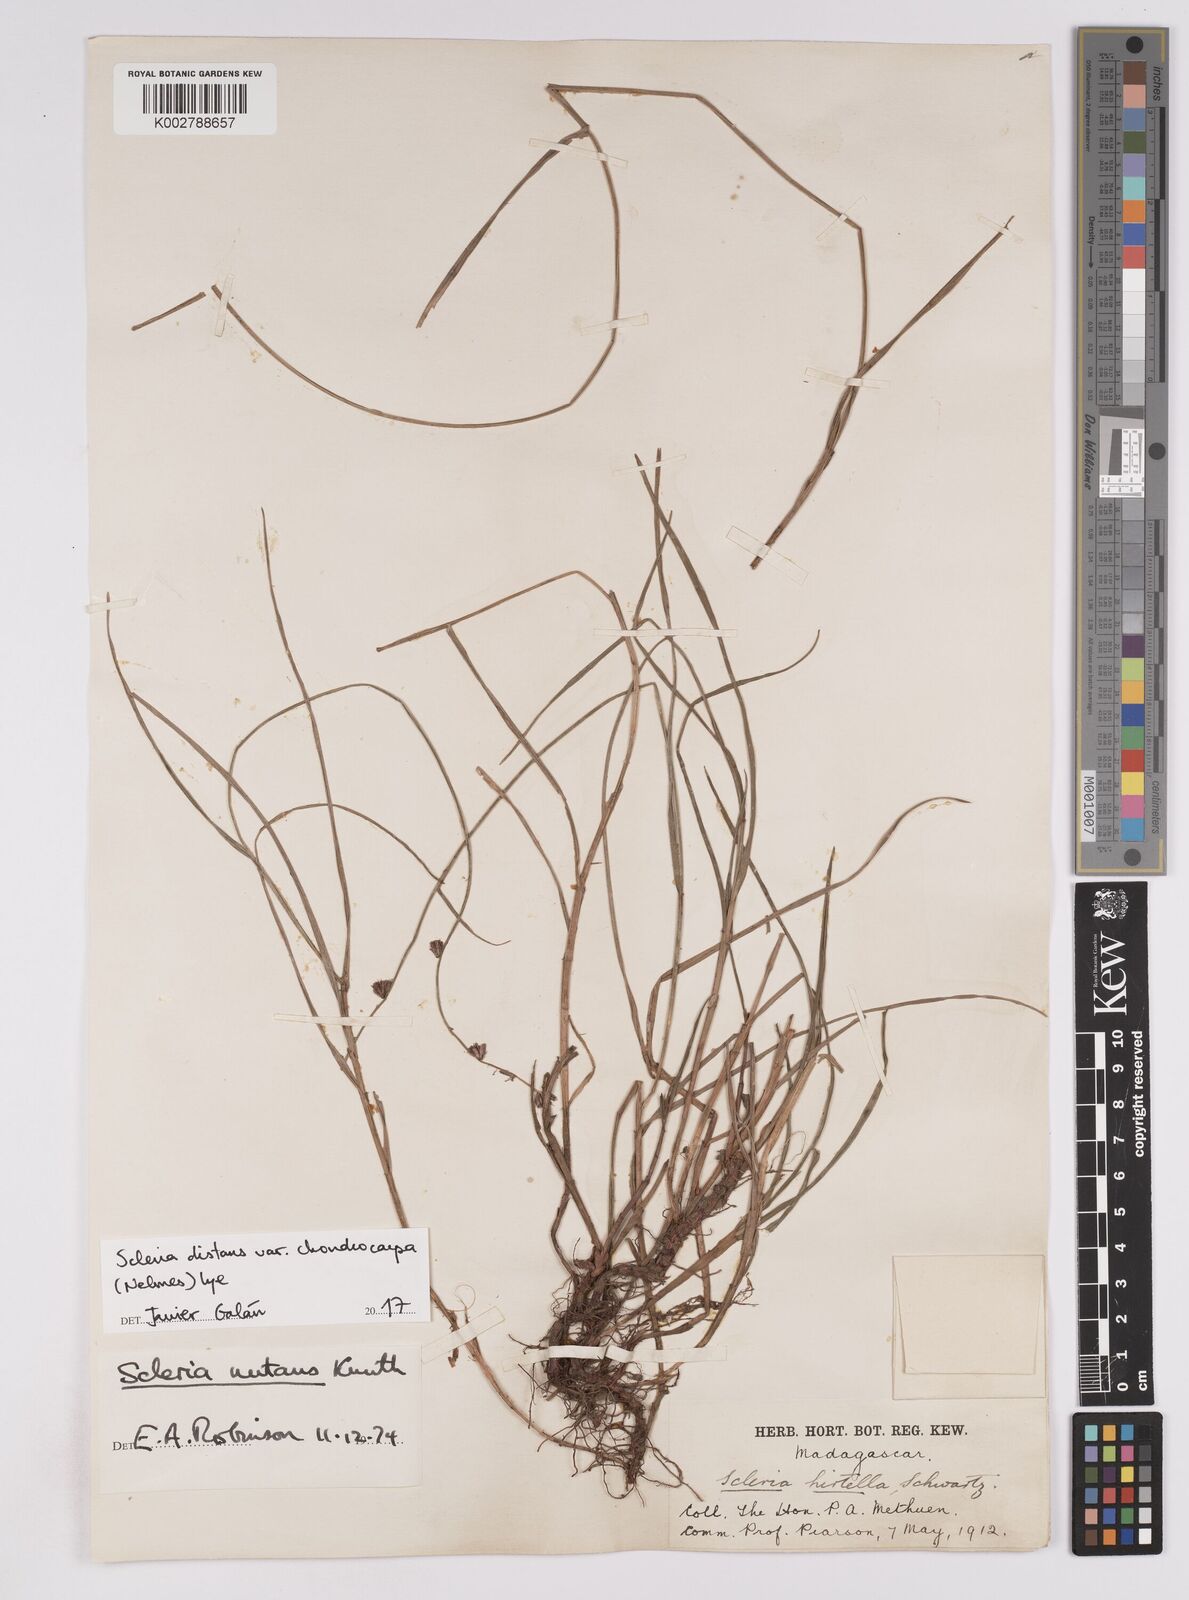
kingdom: Plantae
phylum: Tracheophyta
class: Liliopsida
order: Poales
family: Cyperaceae
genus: Scleria
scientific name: Scleria distans
